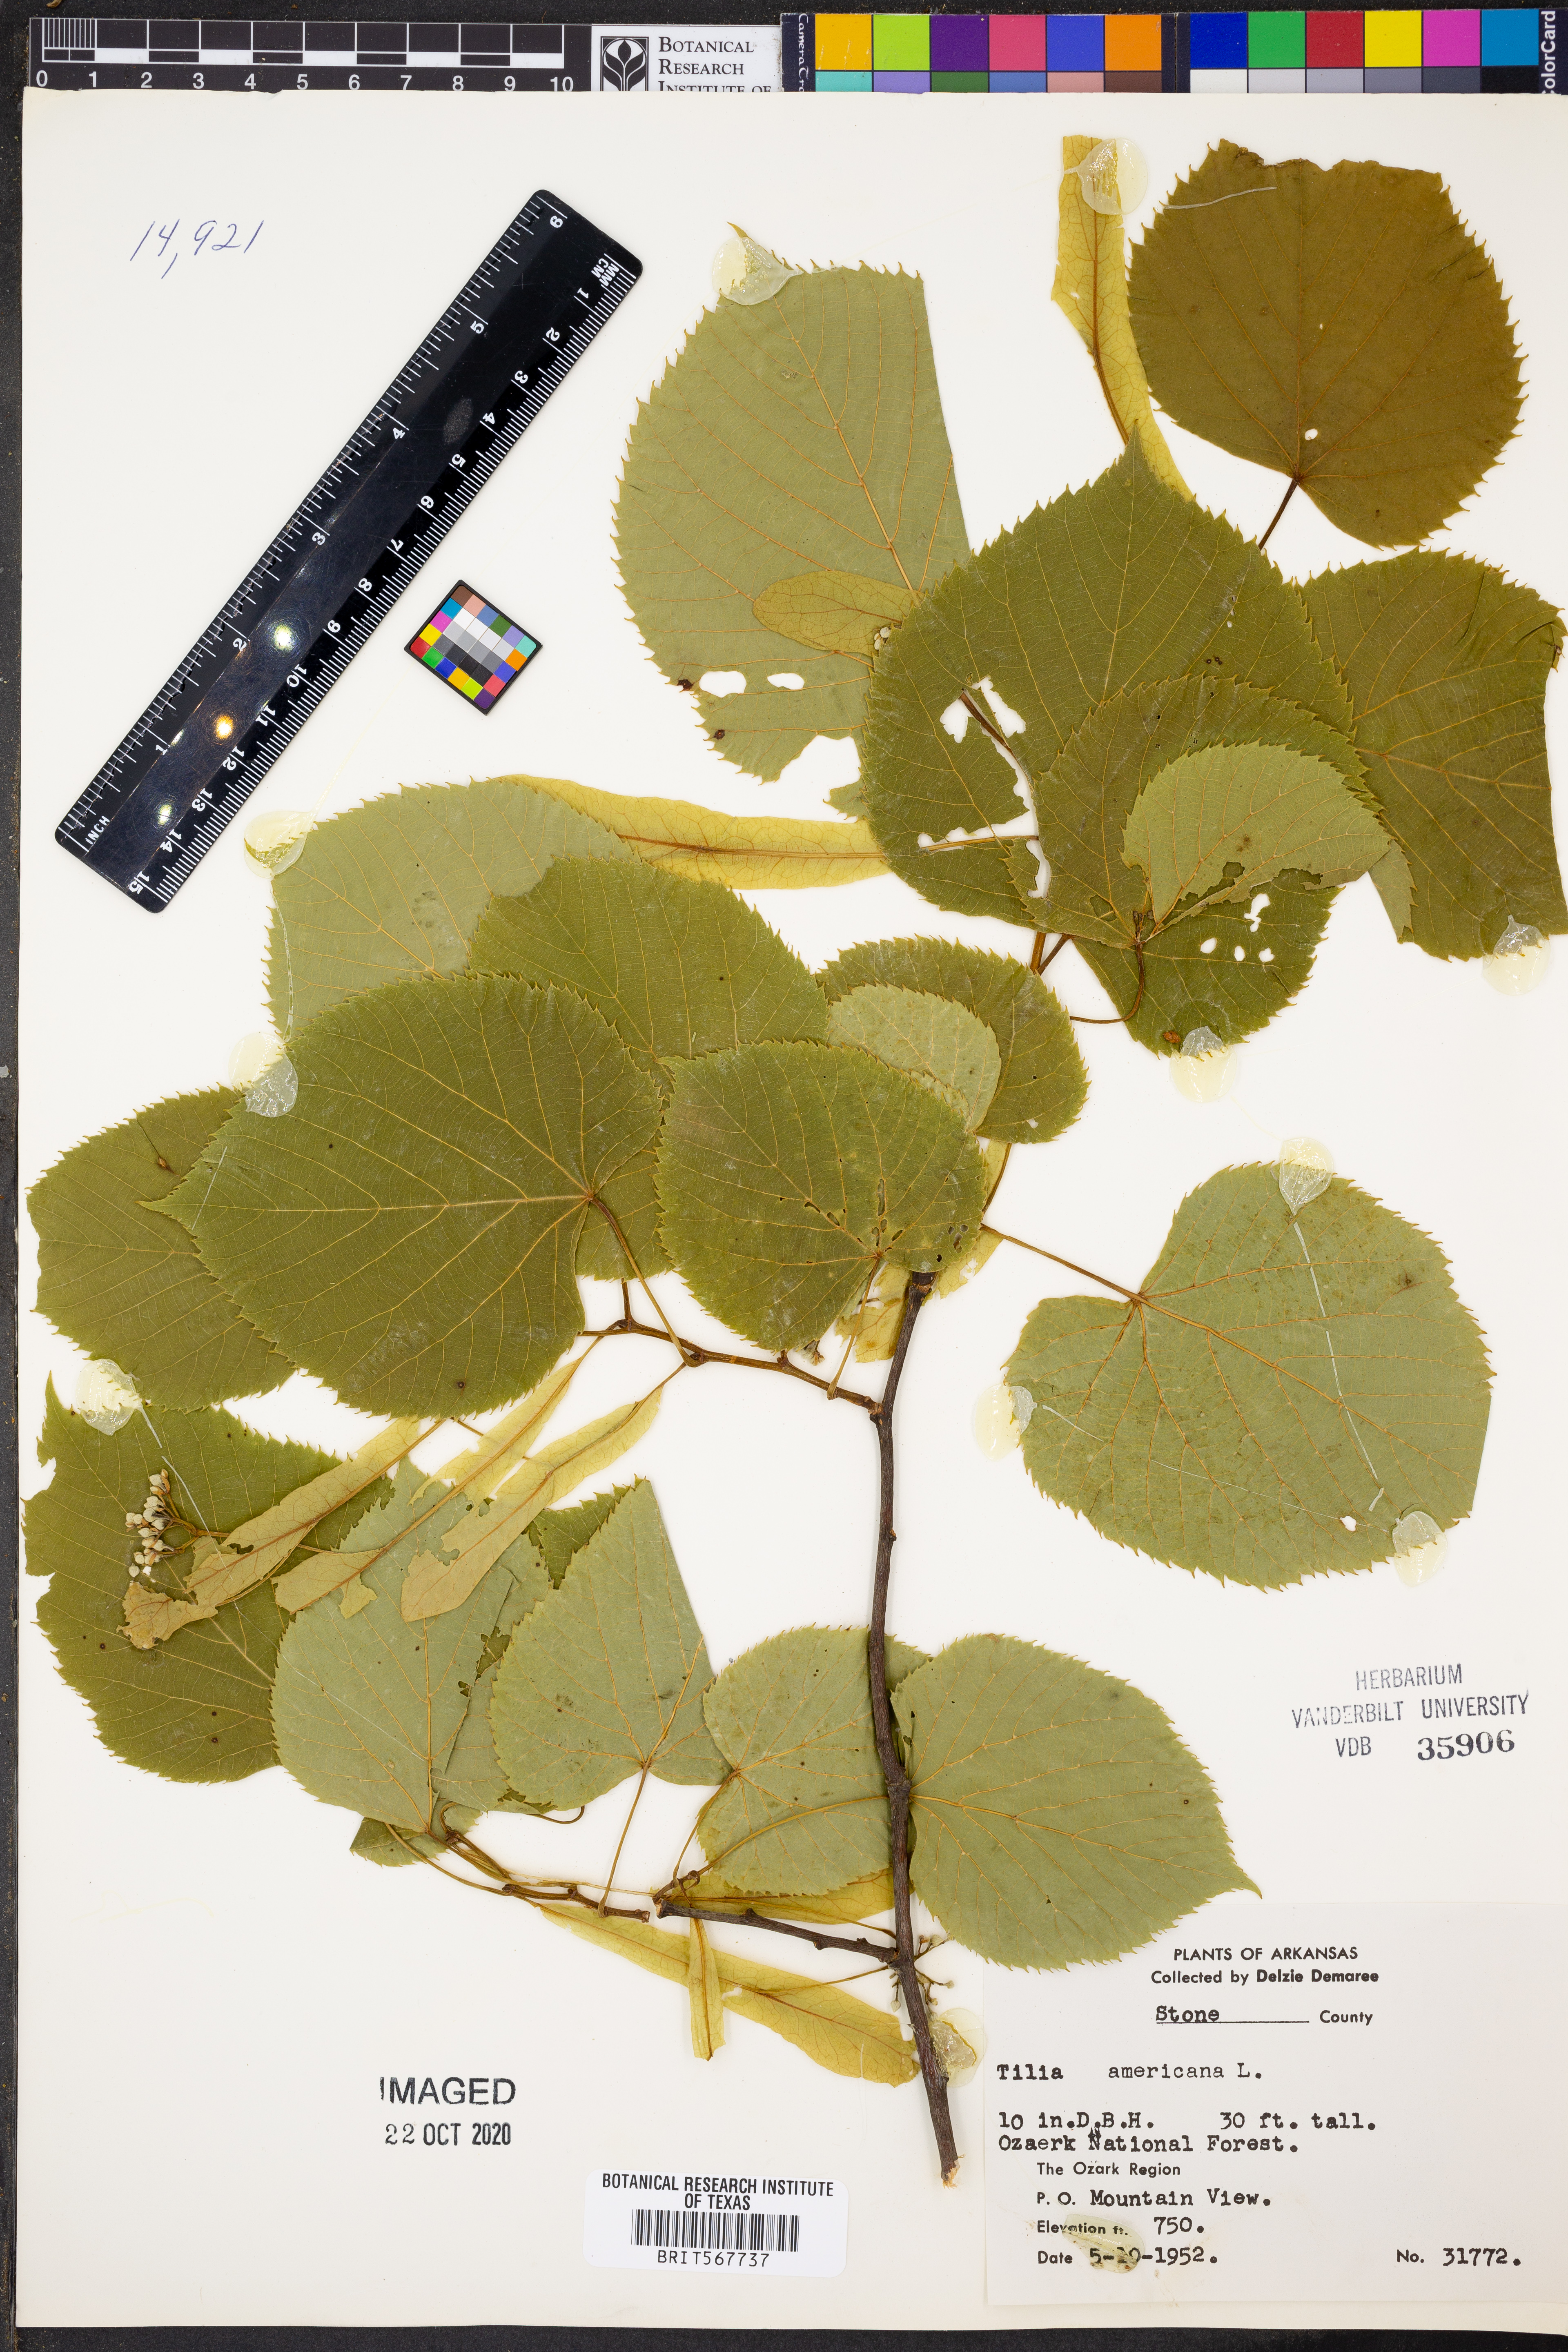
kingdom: Plantae
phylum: Tracheophyta
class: Magnoliopsida
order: Malvales
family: Malvaceae
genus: Tilia
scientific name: Tilia americana
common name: Basswood
